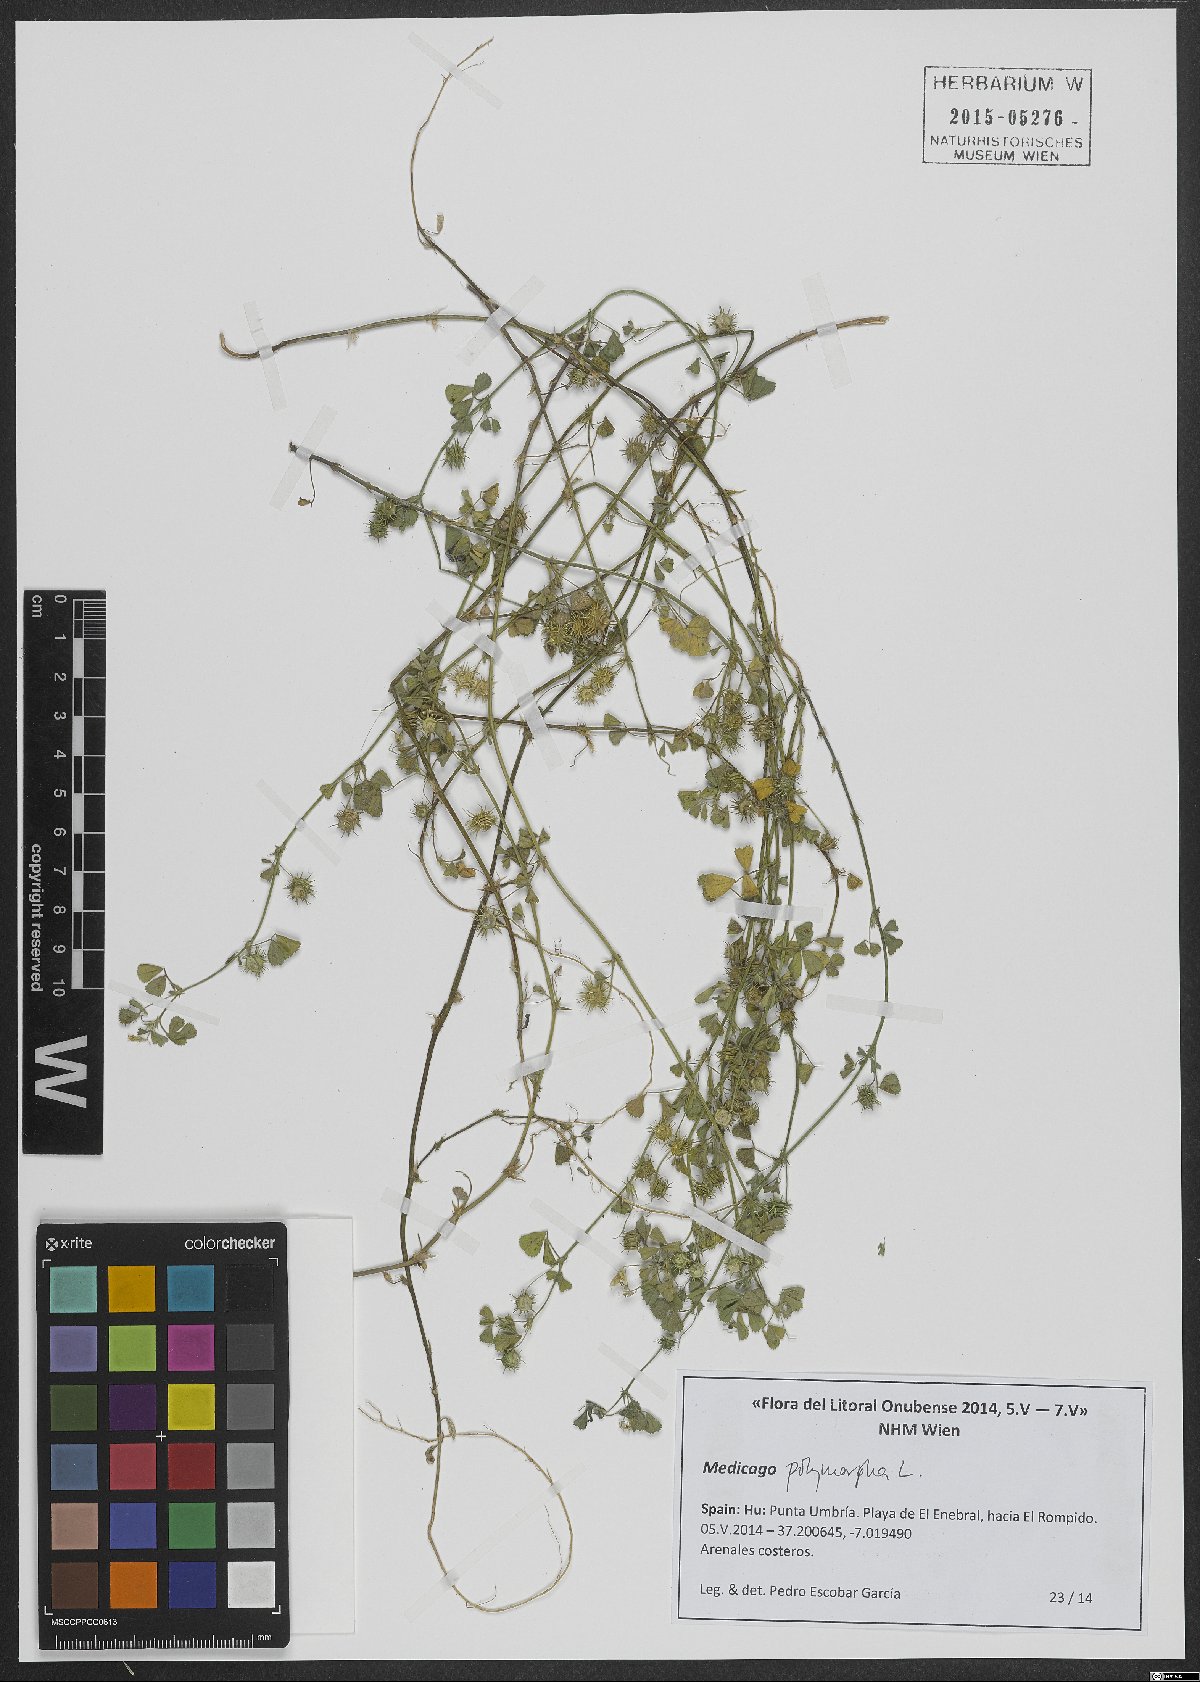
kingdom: Plantae
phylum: Tracheophyta
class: Magnoliopsida
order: Fabales
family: Fabaceae
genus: Medicago
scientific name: Medicago polymorpha
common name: Burclover
